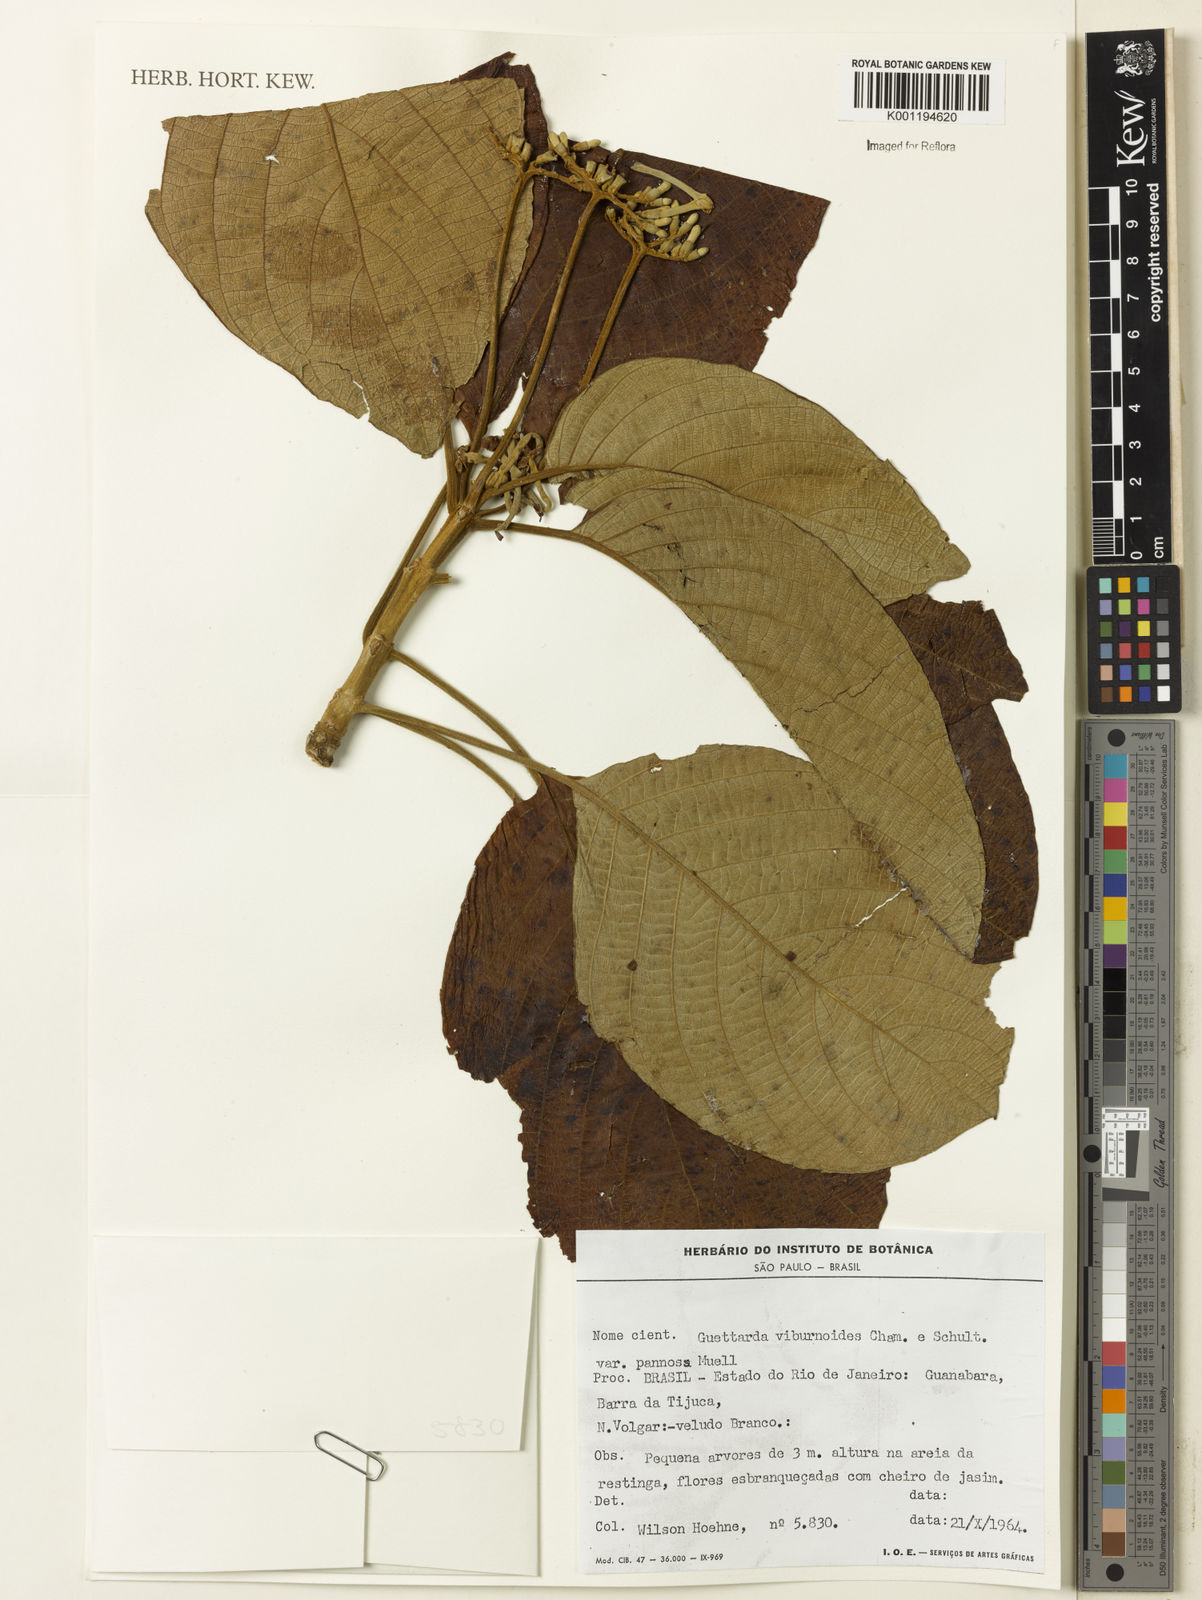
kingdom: Plantae
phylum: Tracheophyta
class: Magnoliopsida
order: Gentianales
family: Rubiaceae
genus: Guettarda
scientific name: Guettarda viburnoides
